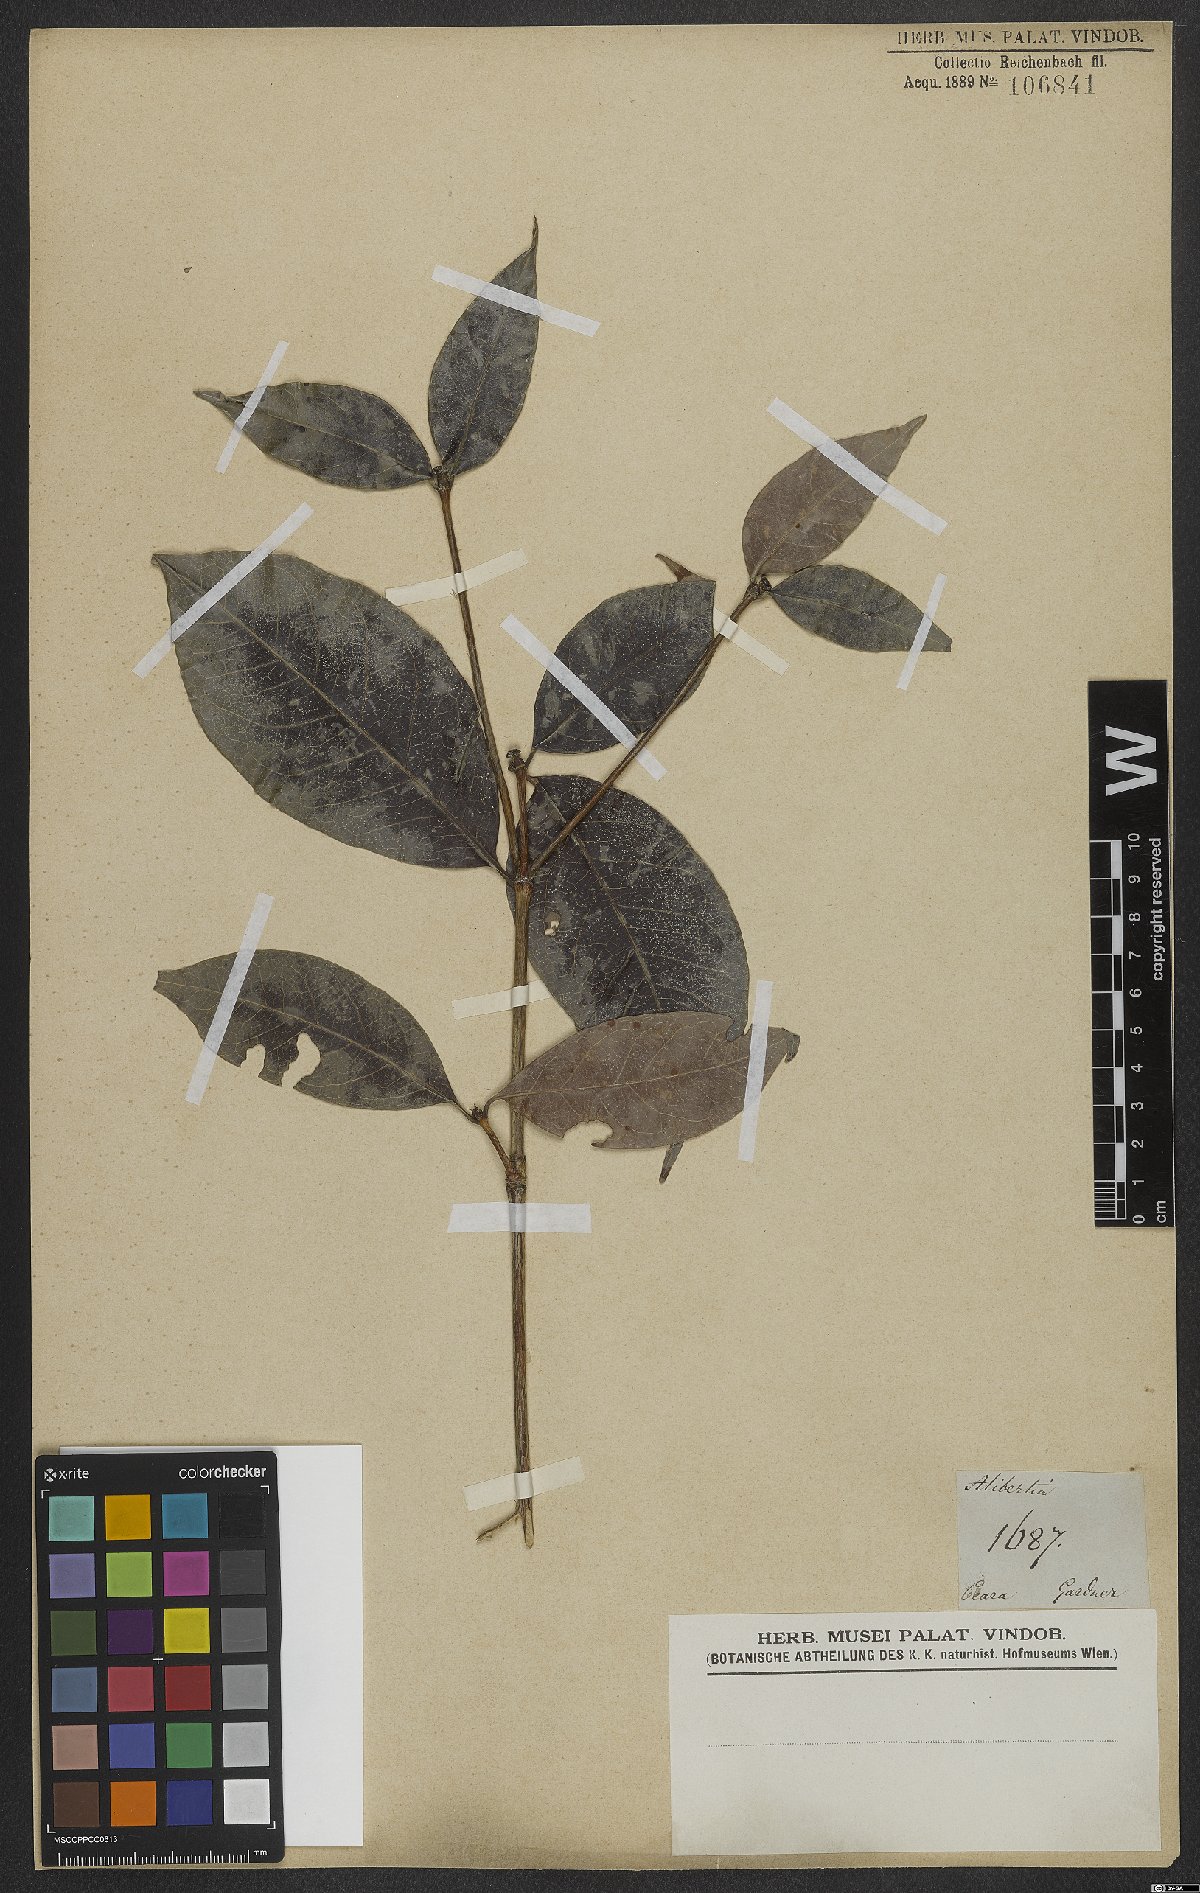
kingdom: Plantae
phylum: Tracheophyta
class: Magnoliopsida
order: Gentianales
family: Rubiaceae
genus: Alibertia
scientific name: Alibertia
